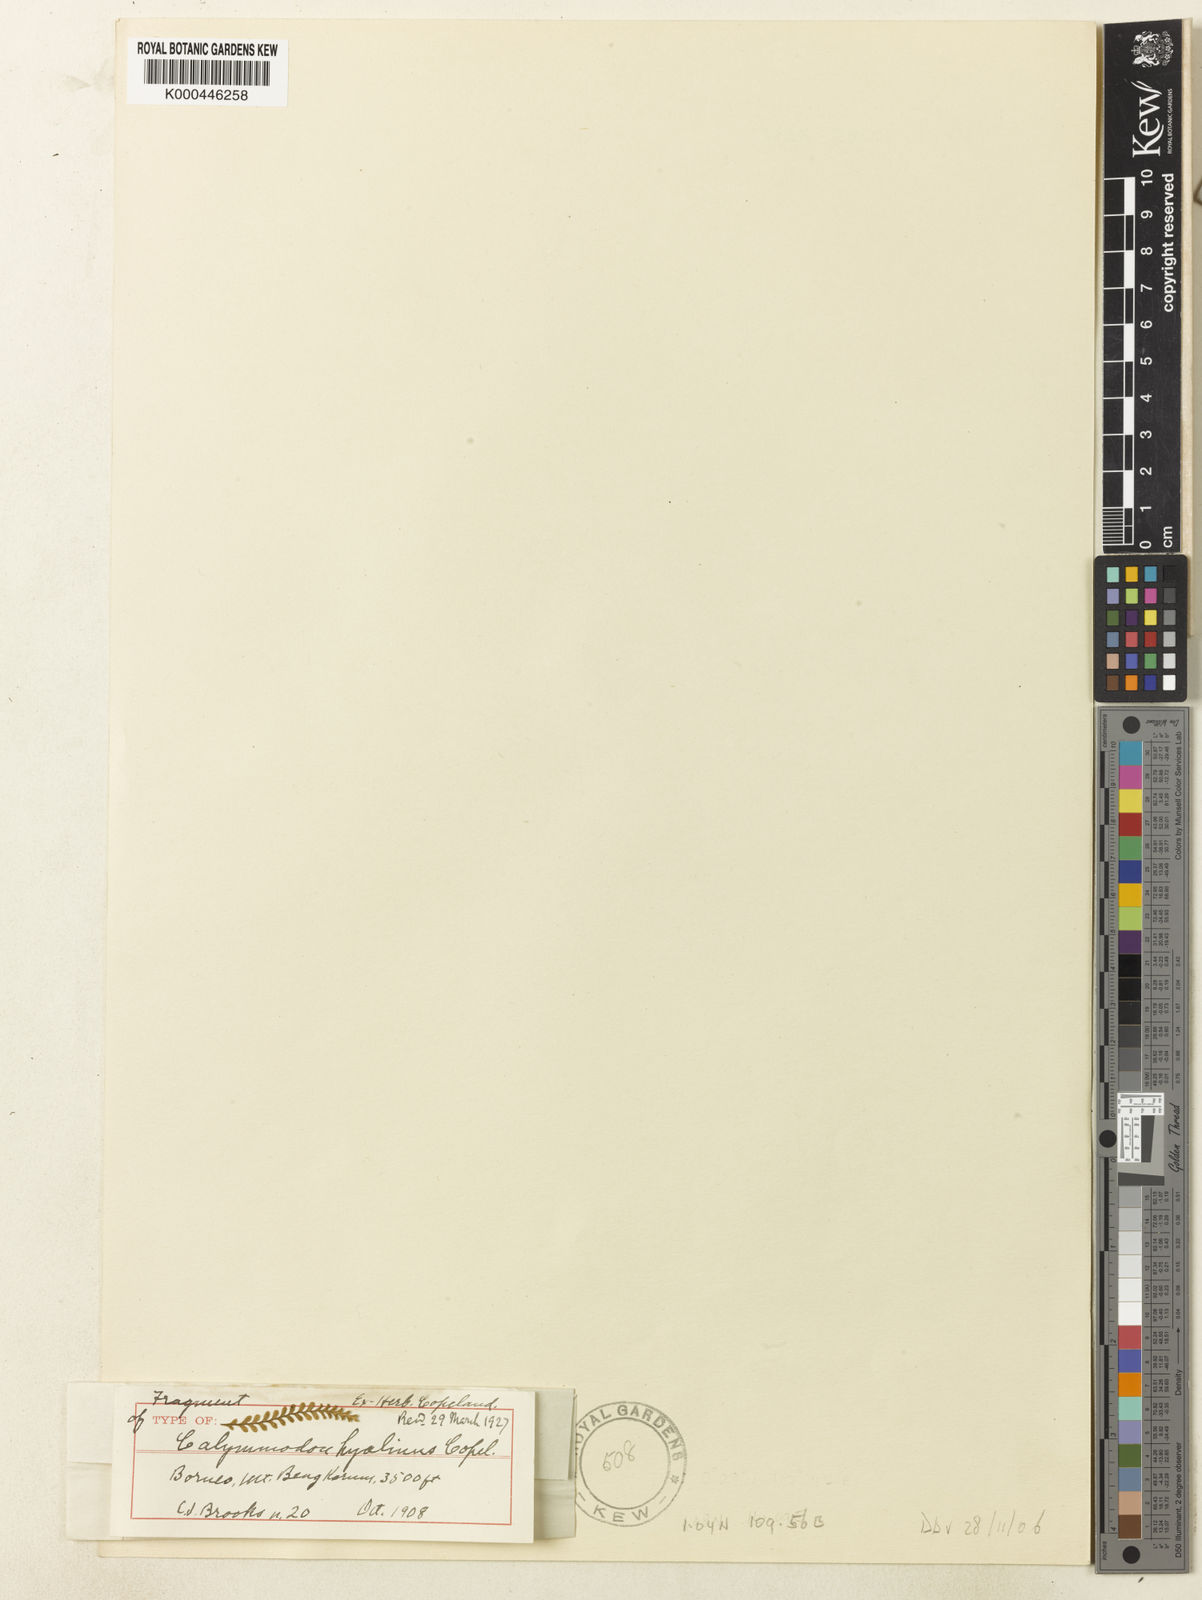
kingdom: Plantae
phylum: Tracheophyta
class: Polypodiopsida
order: Polypodiales
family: Polypodiaceae
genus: Calymmodon
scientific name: Calymmodon gracilis
